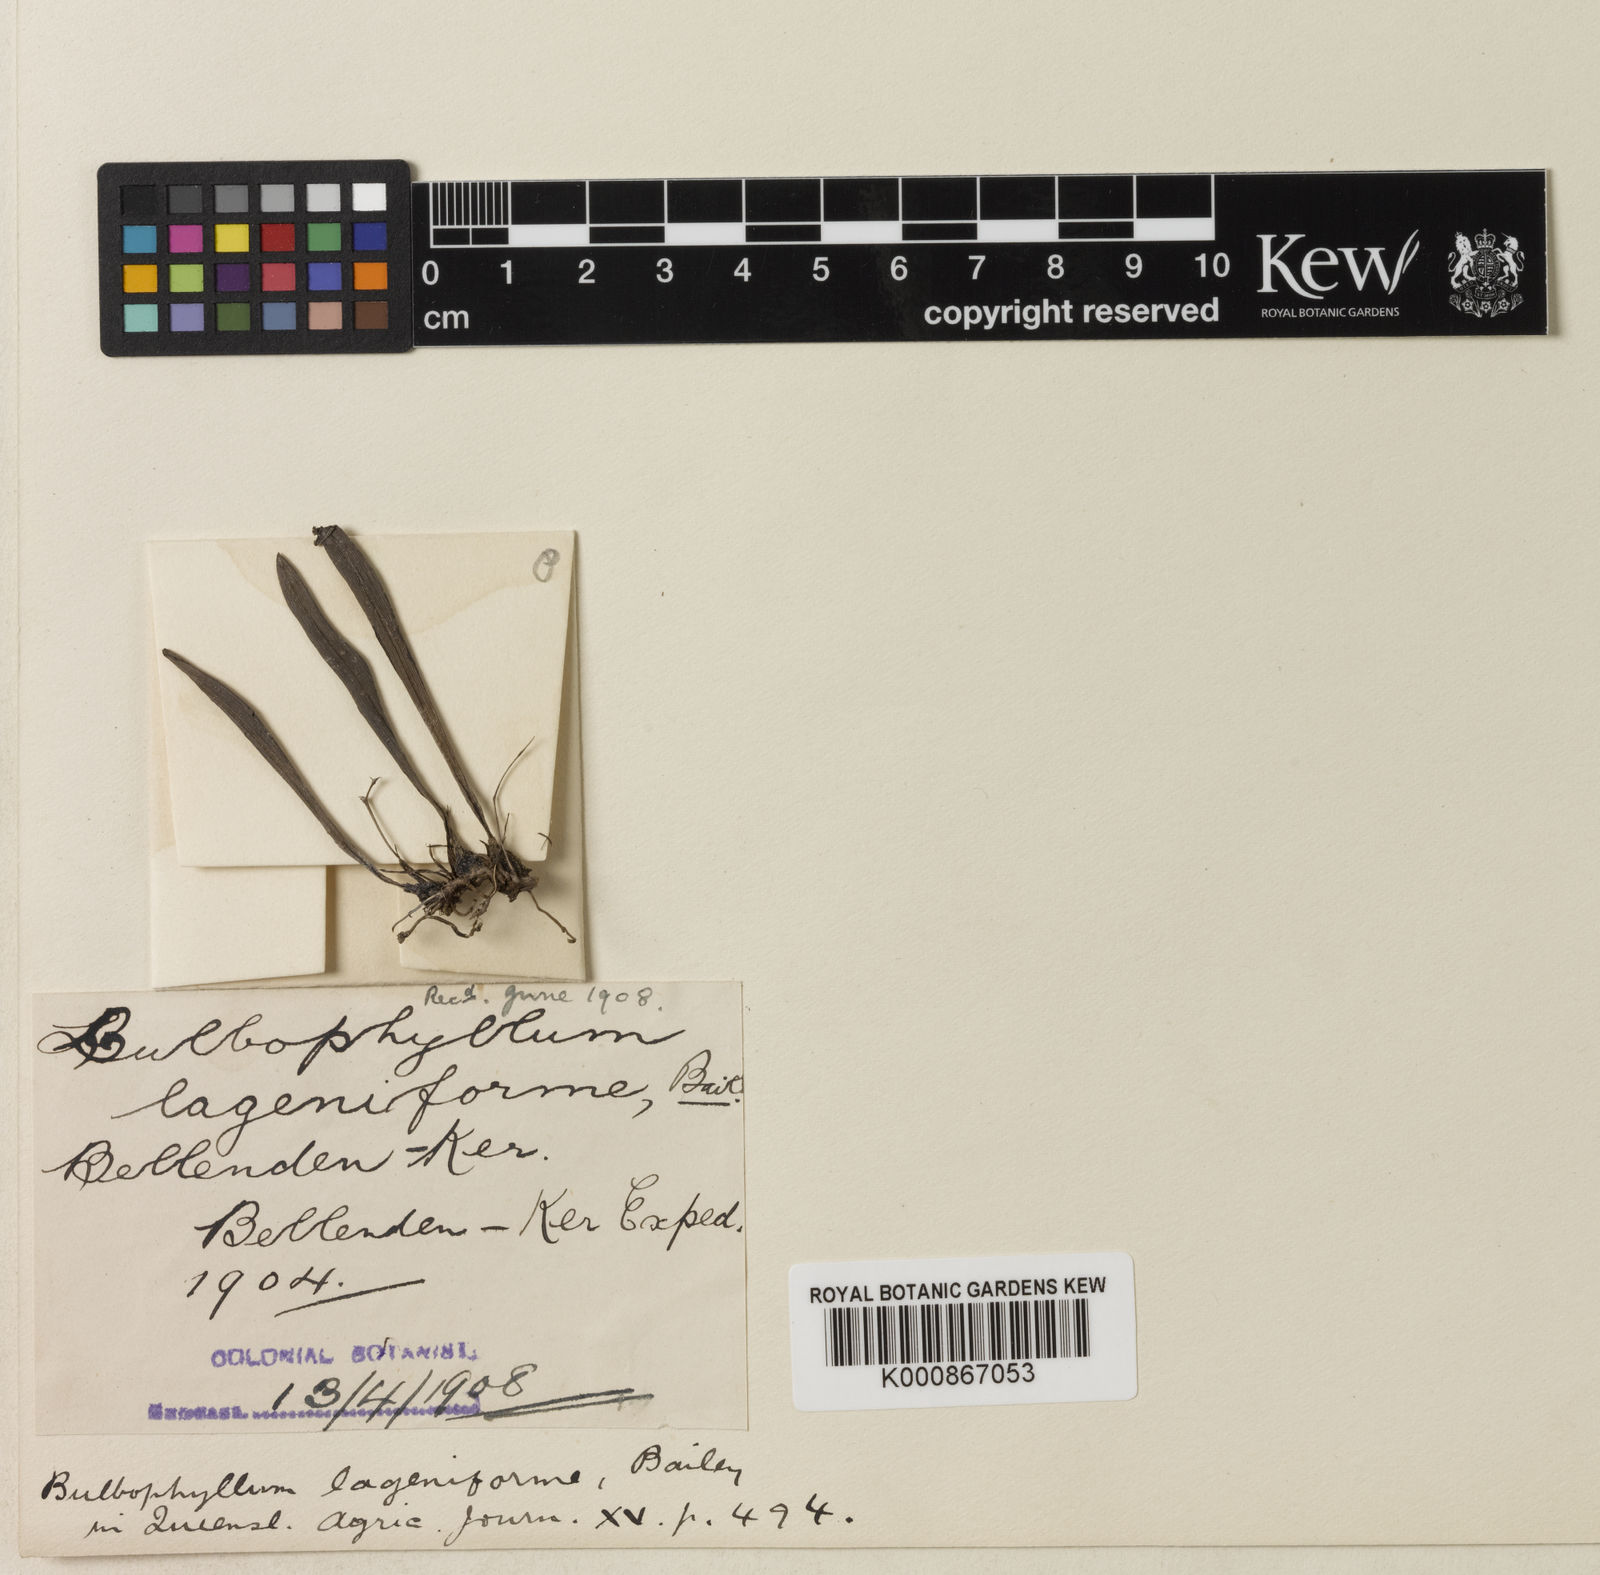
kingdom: Plantae
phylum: Tracheophyta
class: Liliopsida
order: Asparagales
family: Orchidaceae
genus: Bulbophyllum
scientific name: Bulbophyllum lageniforme
